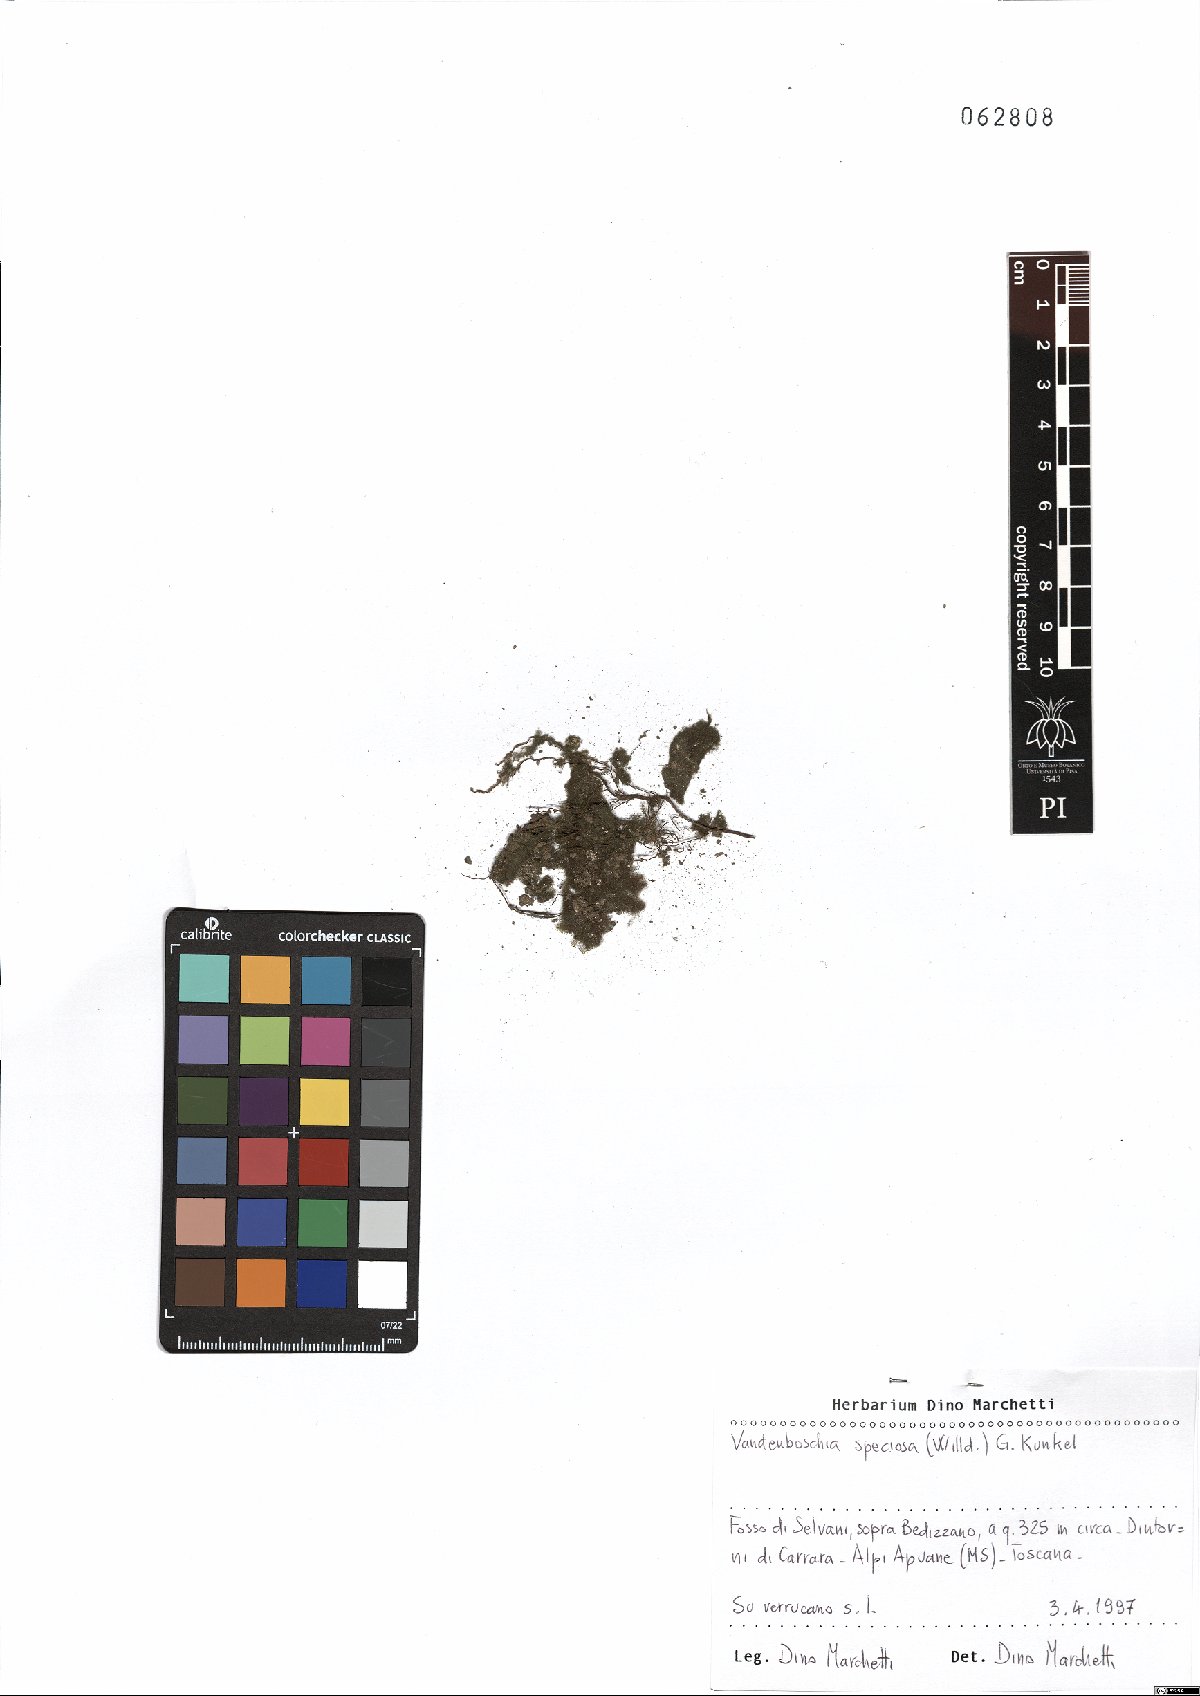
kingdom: Plantae
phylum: Tracheophyta
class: Polypodiopsida
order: Hymenophyllales
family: Hymenophyllaceae
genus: Vandenboschia
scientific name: Vandenboschia speciosa
